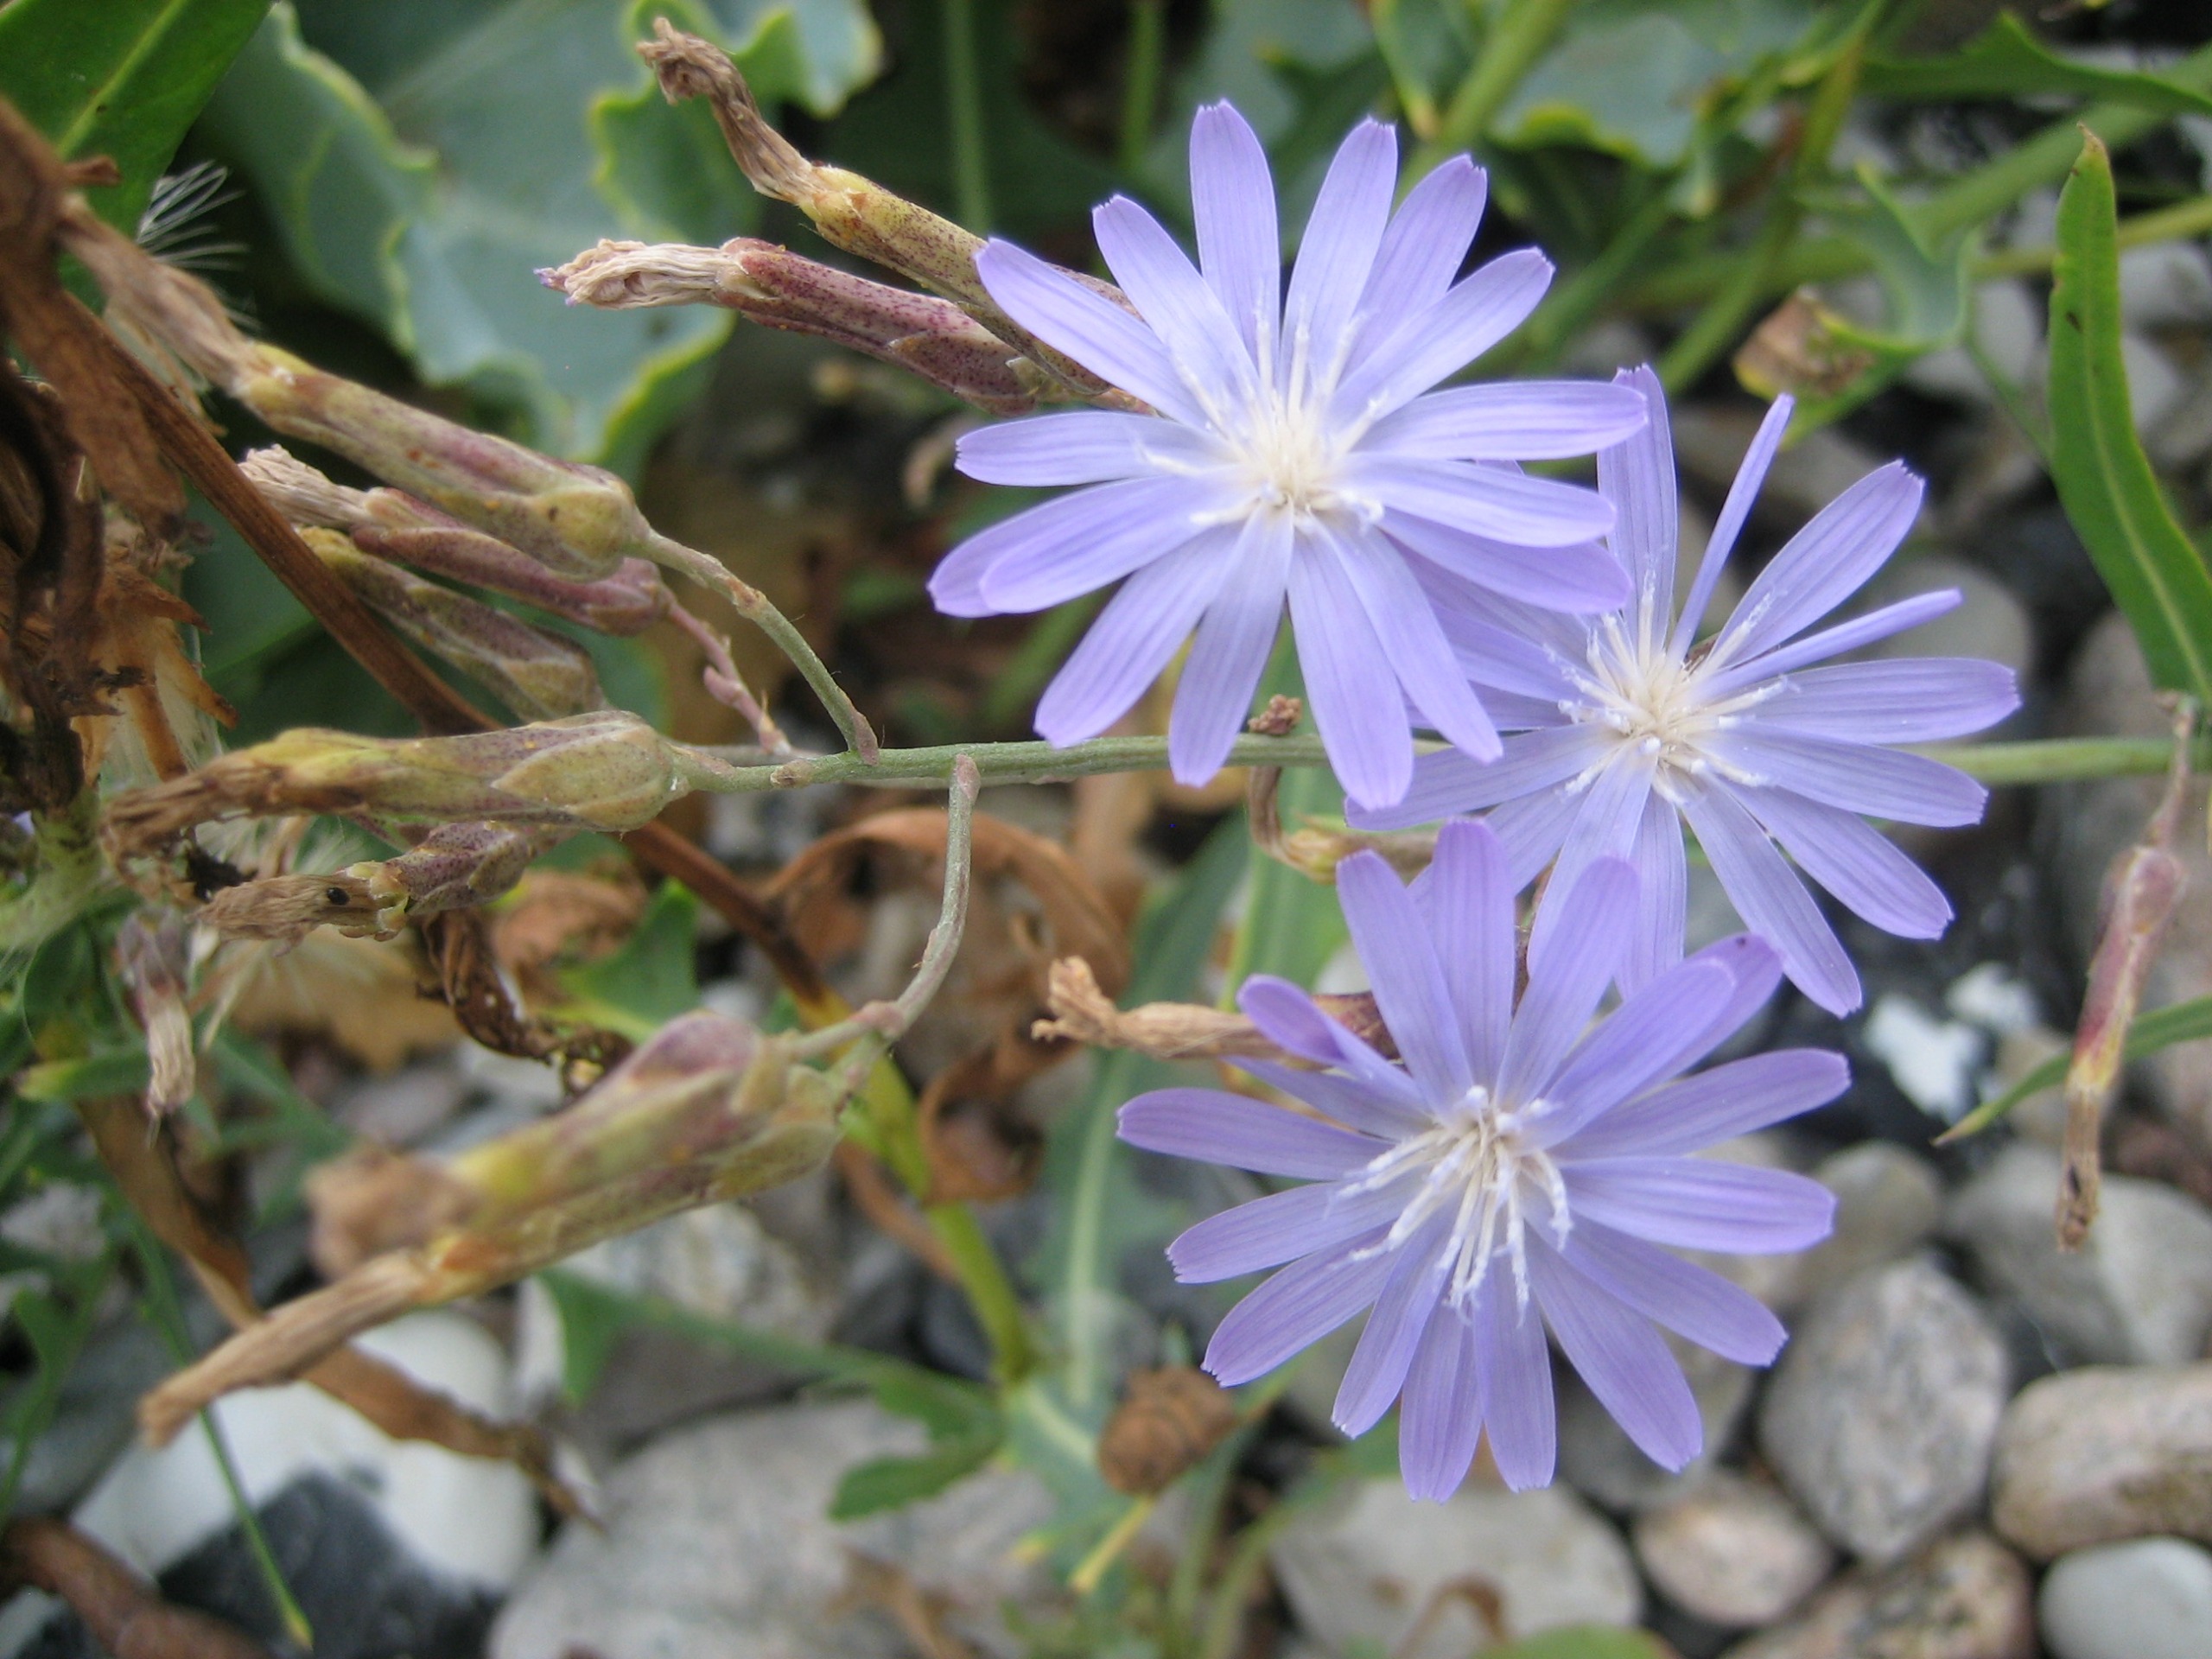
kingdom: Plantae
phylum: Tracheophyta
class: Magnoliopsida
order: Asterales
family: Asteraceae
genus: Lactuca
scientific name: Lactuca tatarica
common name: Strand-salat
